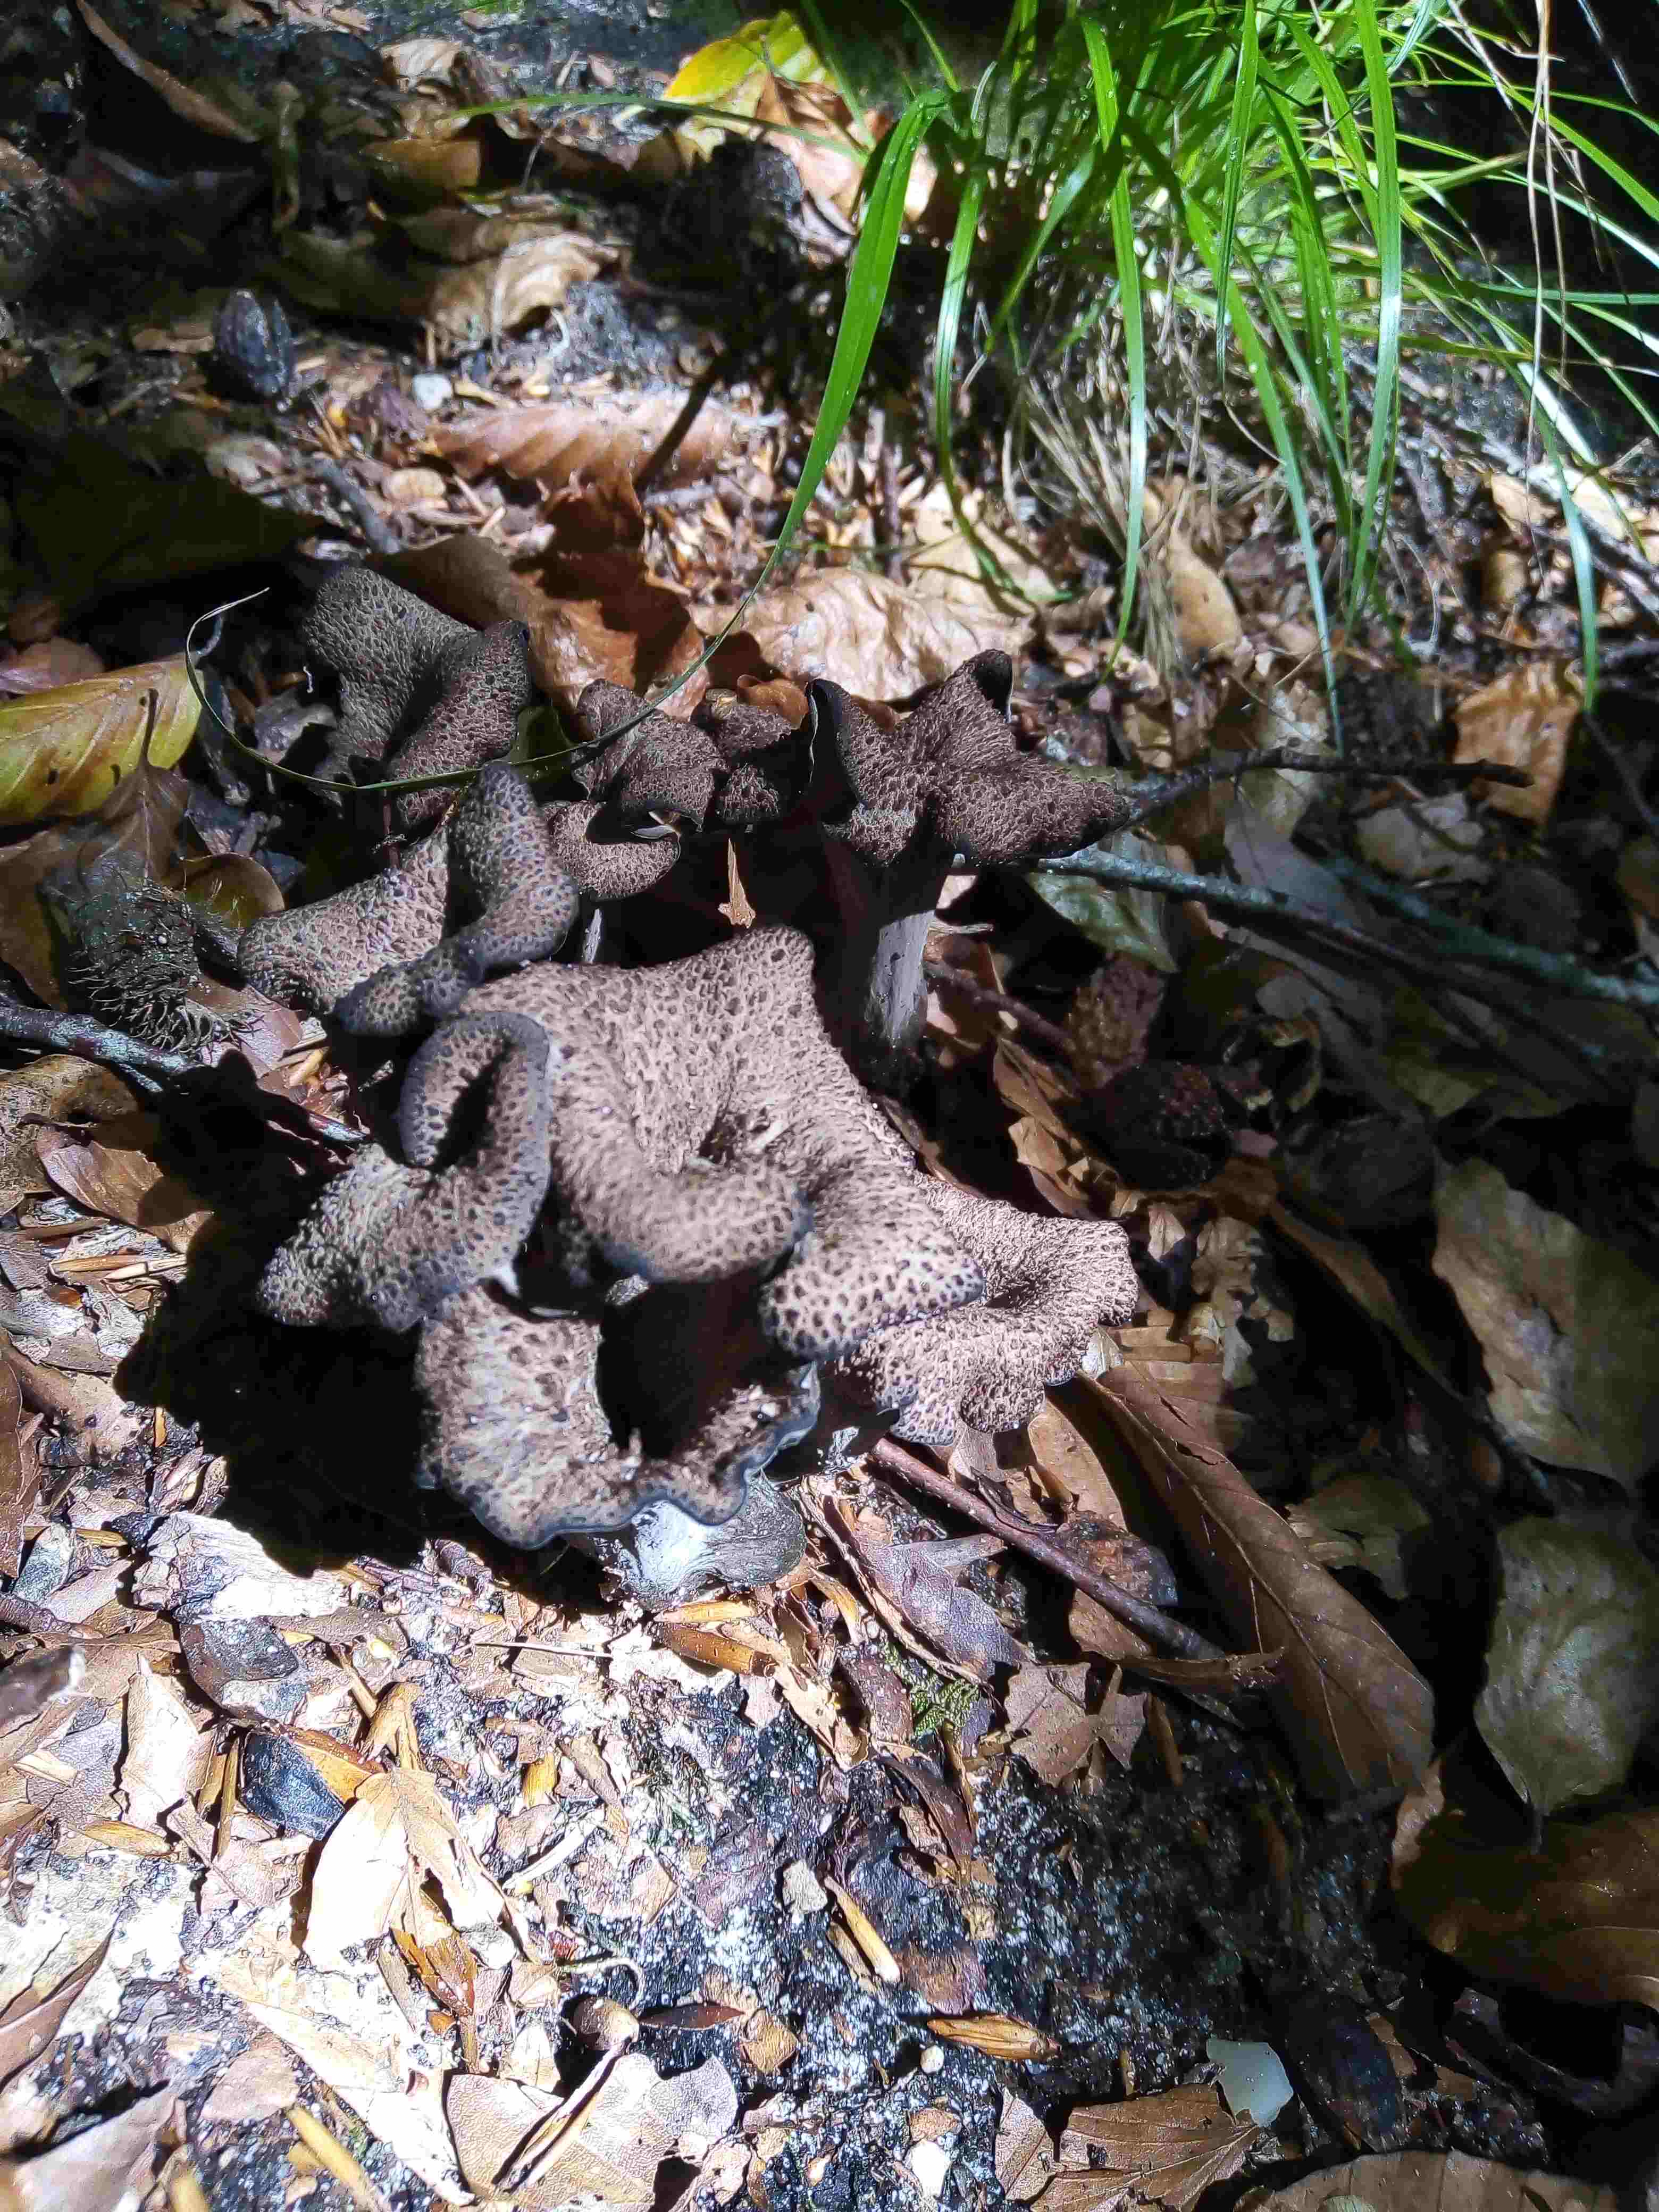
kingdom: Fungi
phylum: Basidiomycota
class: Agaricomycetes
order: Cantharellales
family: Hydnaceae
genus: Craterellus
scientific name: Craterellus cornucopioides
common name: trompetsvamp
